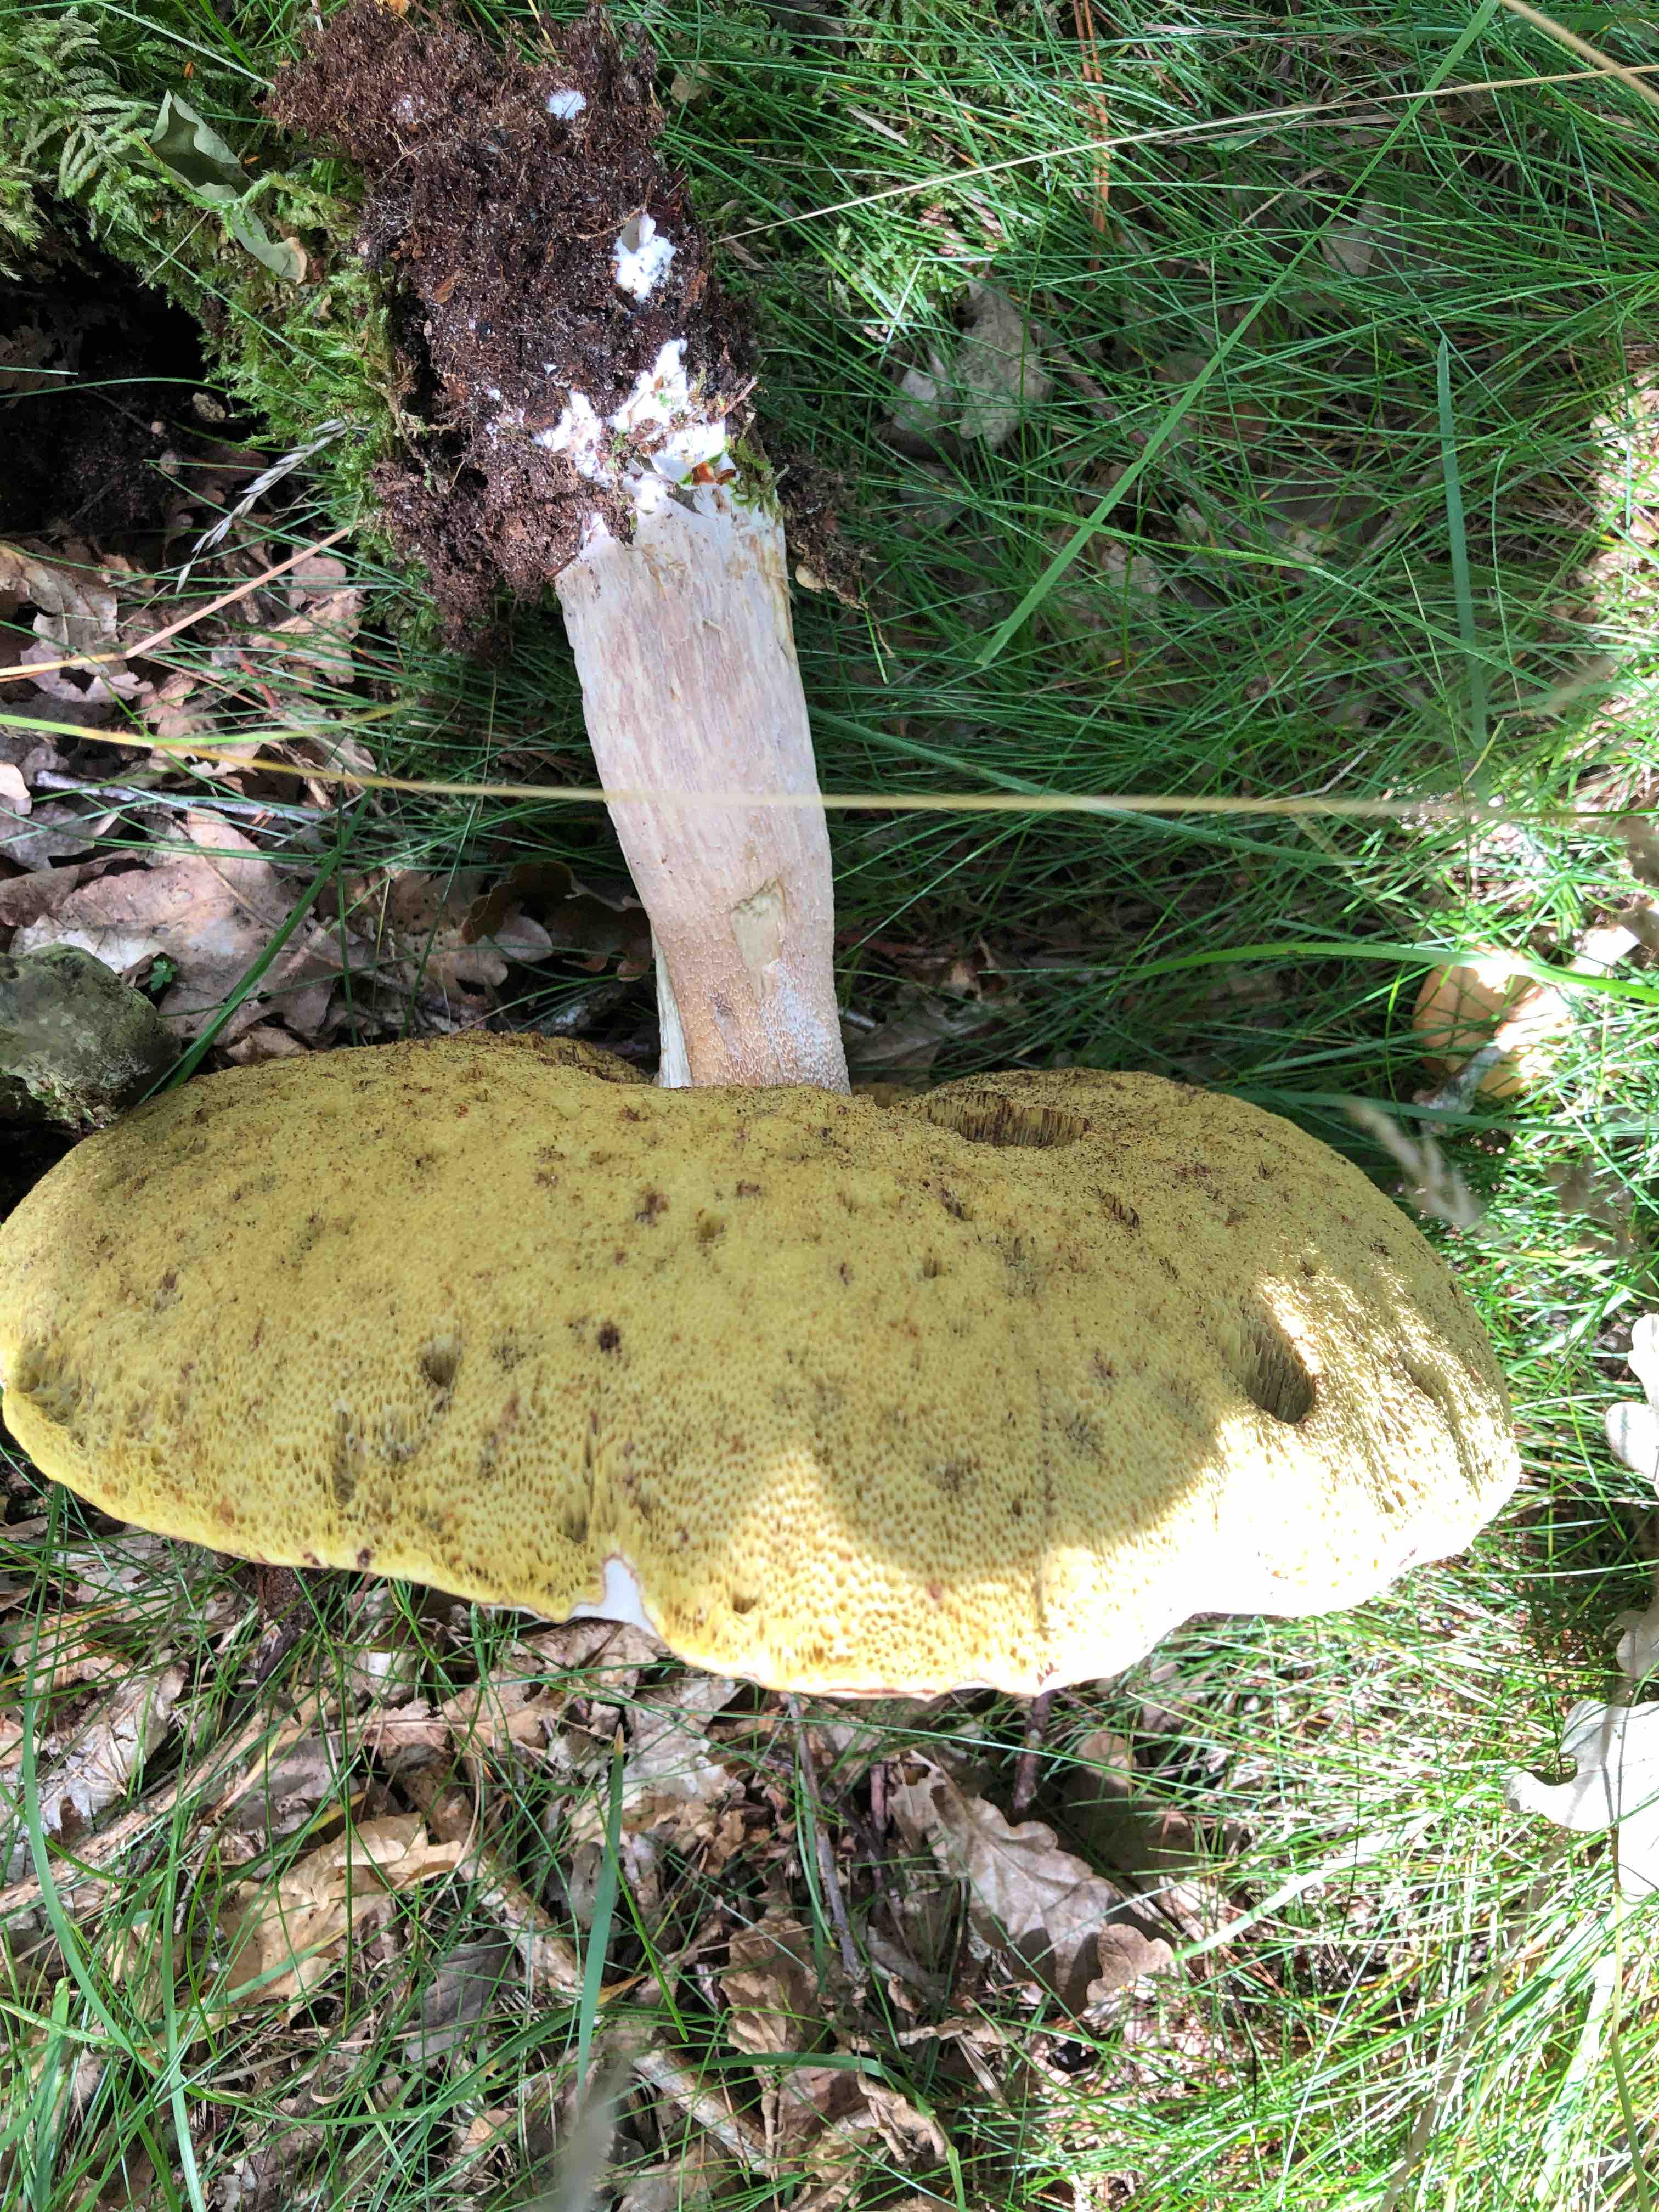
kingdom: Fungi
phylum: Basidiomycota
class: Agaricomycetes
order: Boletales
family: Boletaceae
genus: Boletus
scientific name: Boletus edulis
